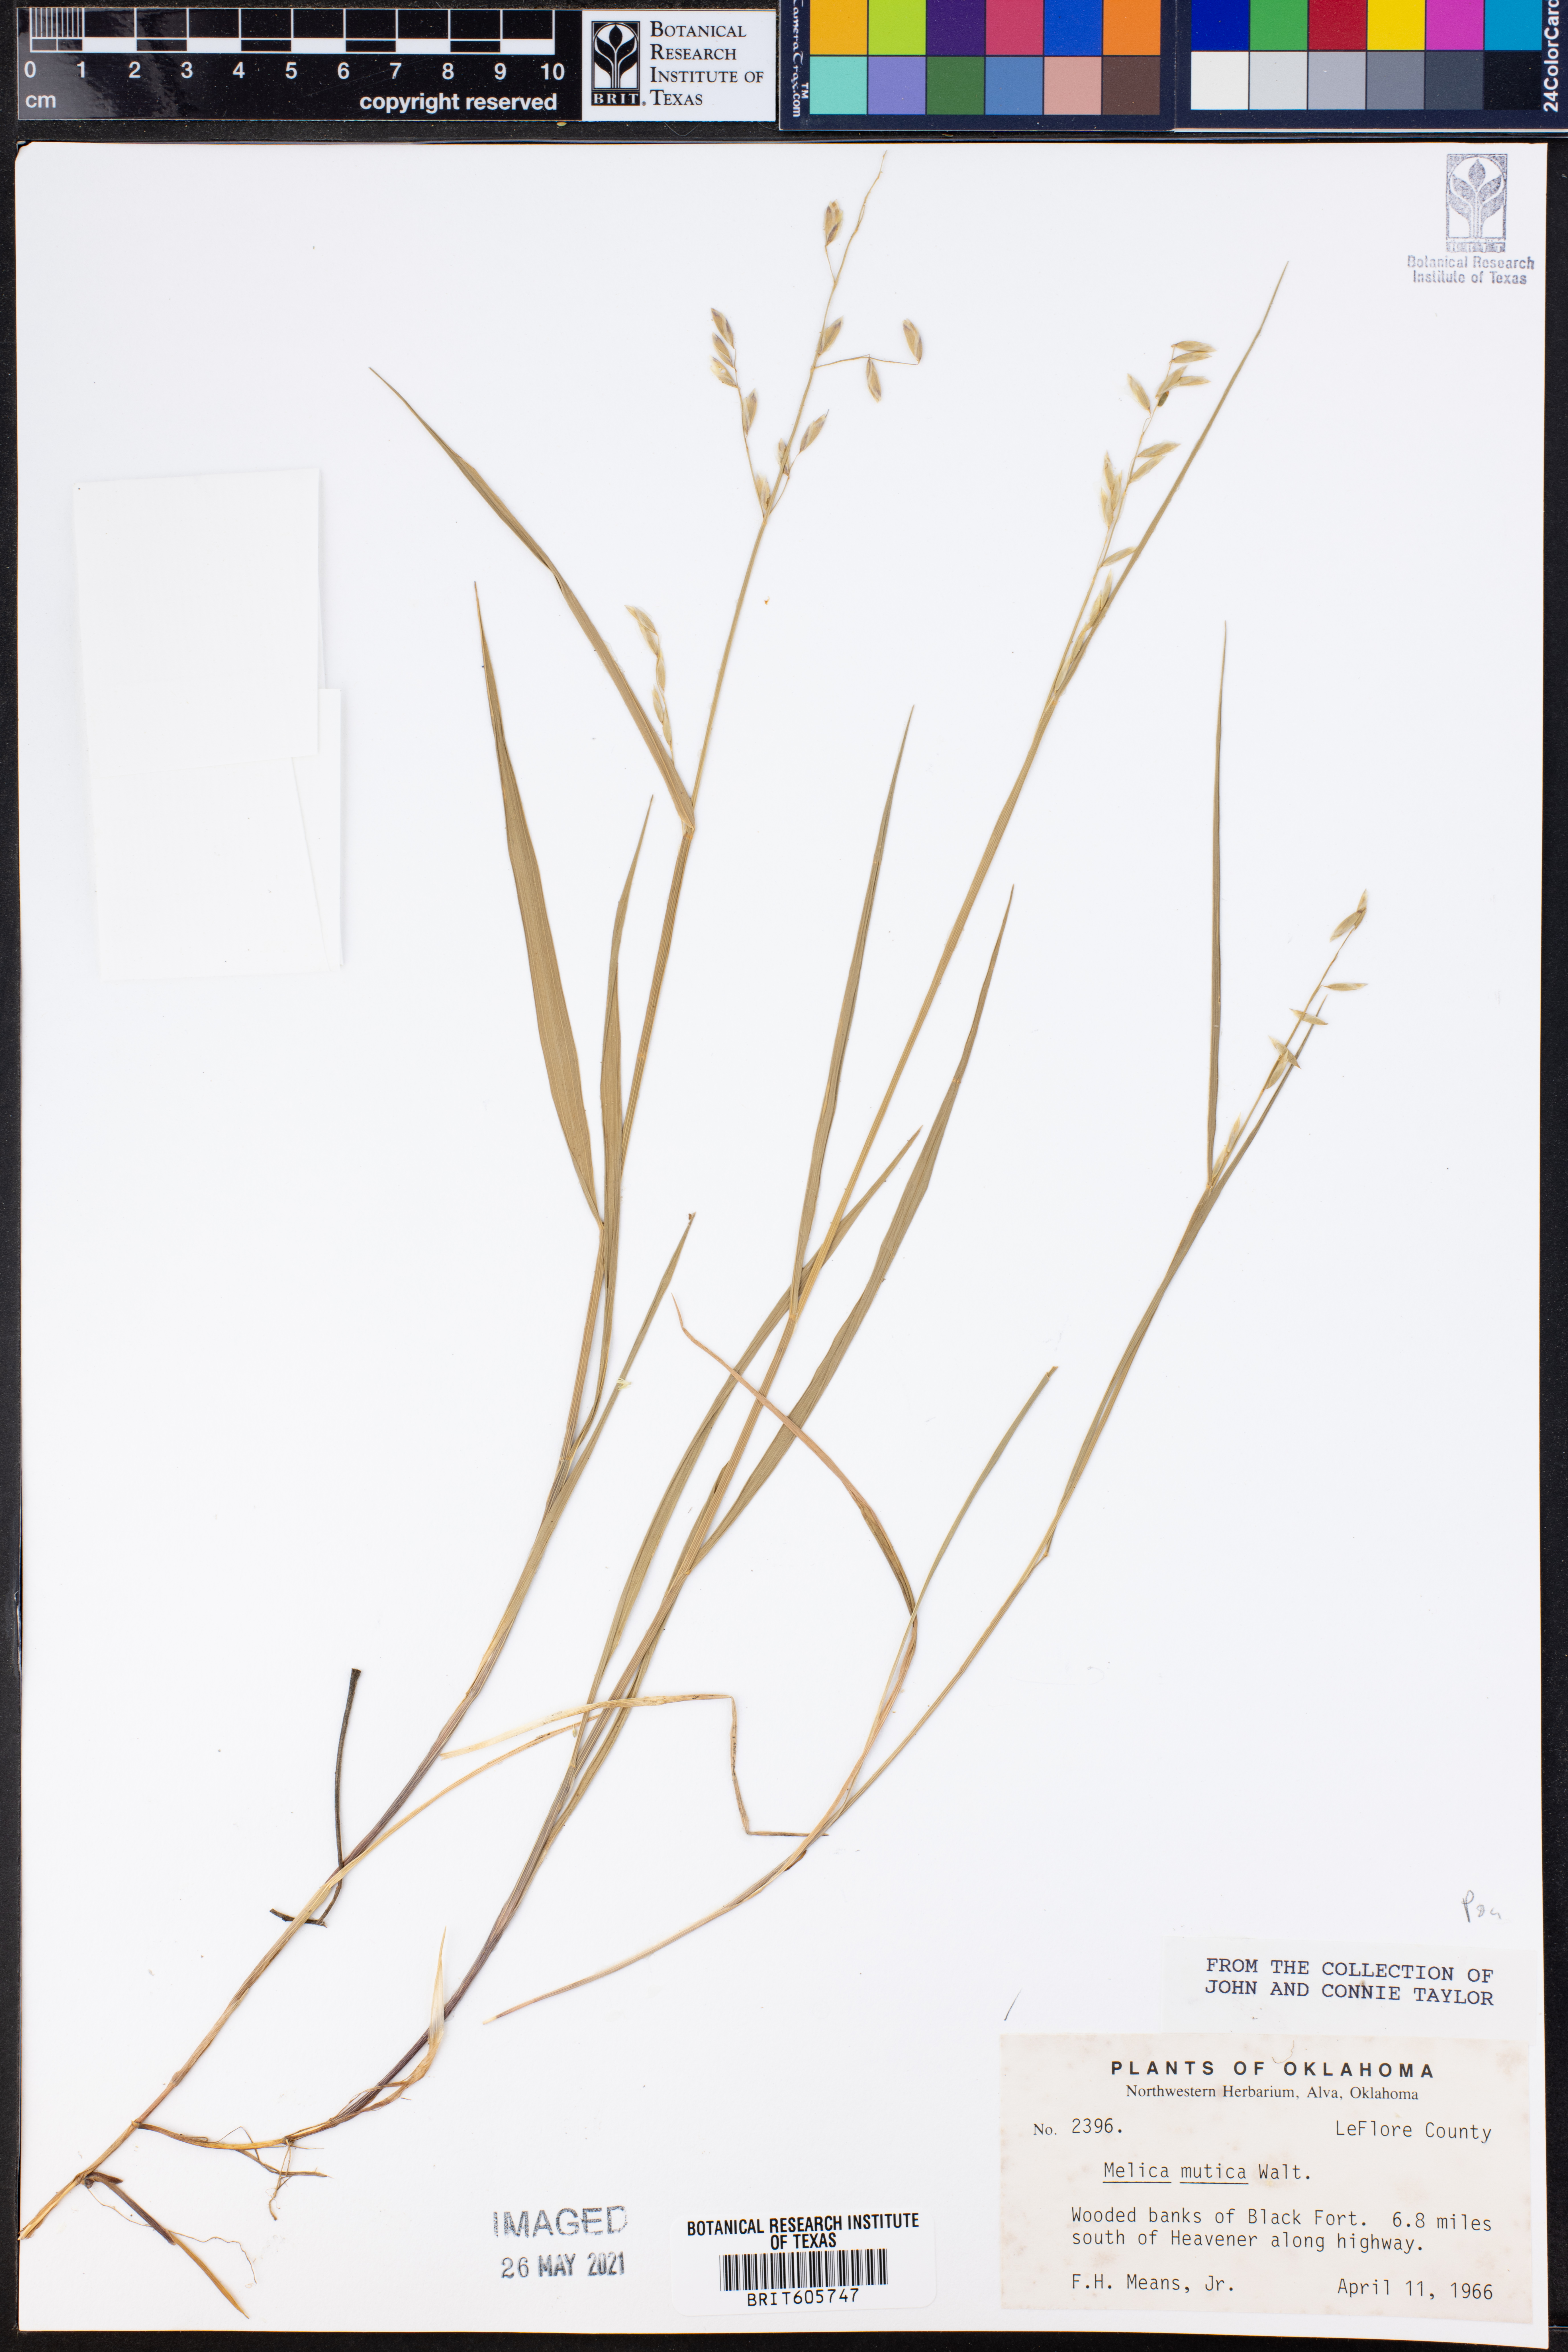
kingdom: Plantae
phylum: Tracheophyta
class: Liliopsida
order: Poales
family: Poaceae
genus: Melica
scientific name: Melica mutica
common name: Two-flower melic
